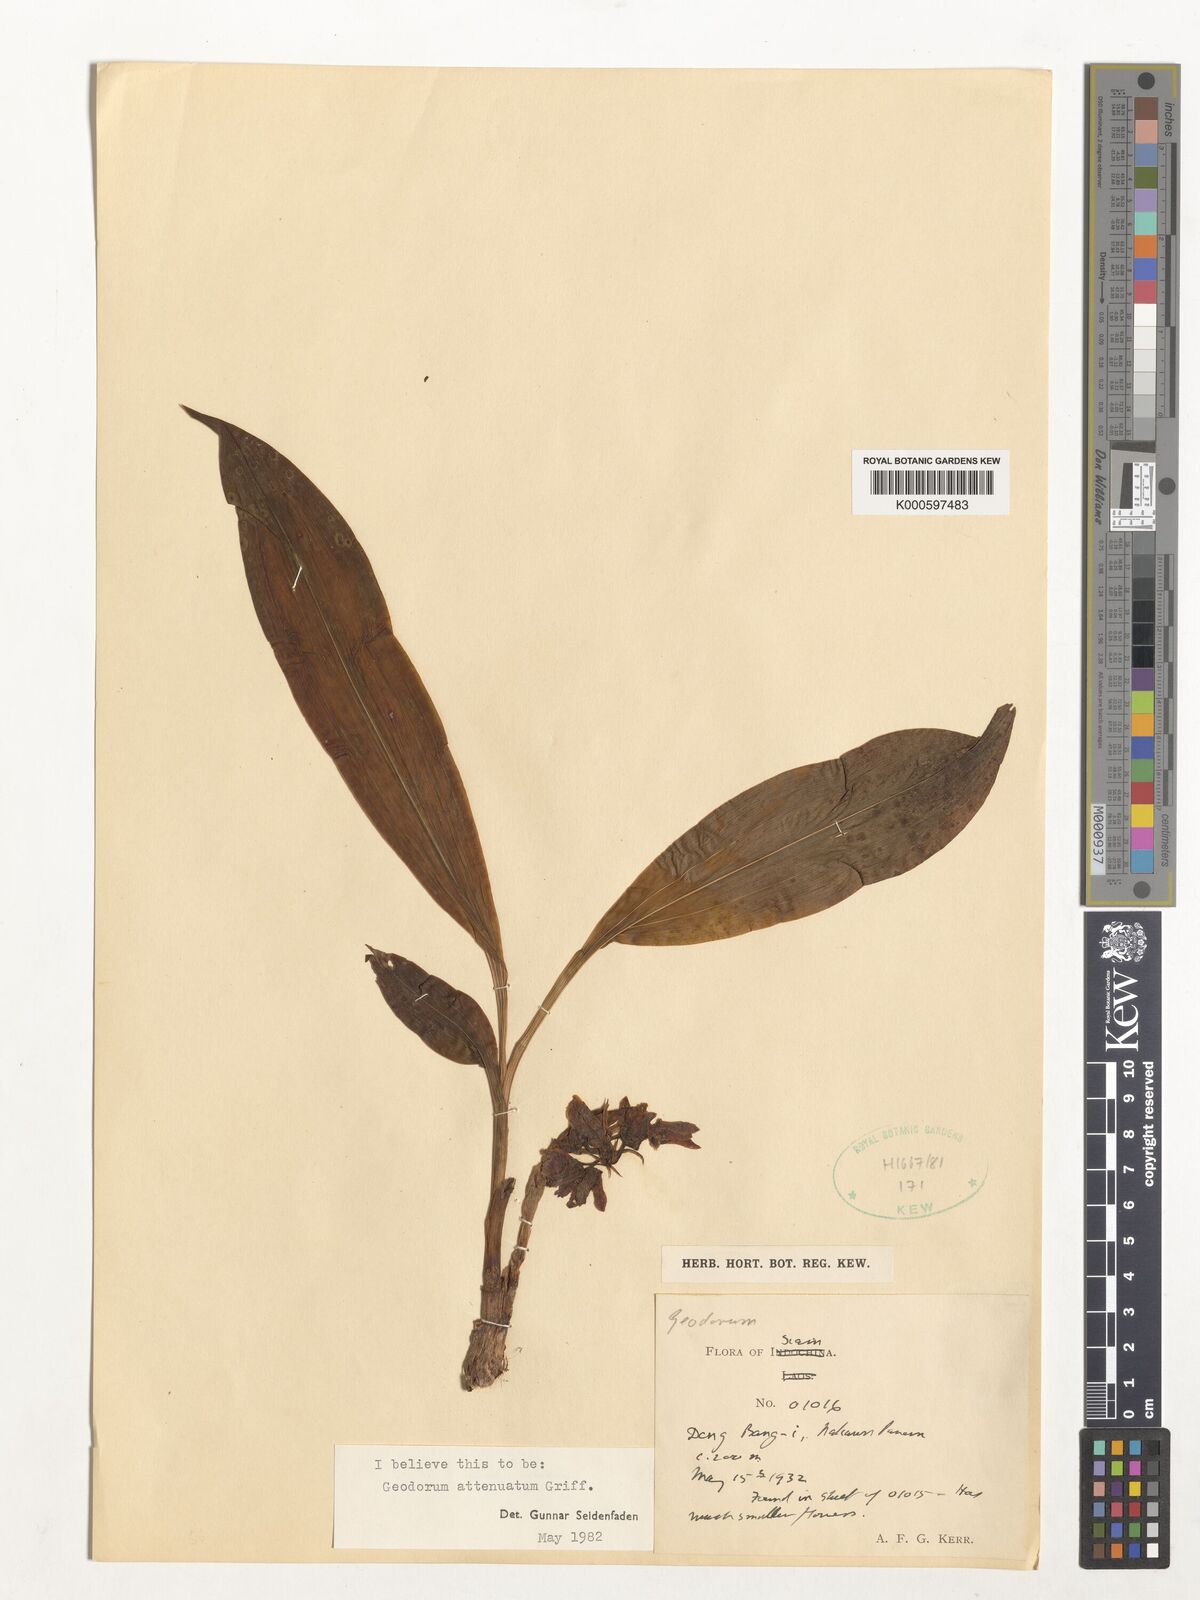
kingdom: Plantae
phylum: Tracheophyta
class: Liliopsida
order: Asparagales
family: Orchidaceae
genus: Eulophia
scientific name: Eulophia attenuata
